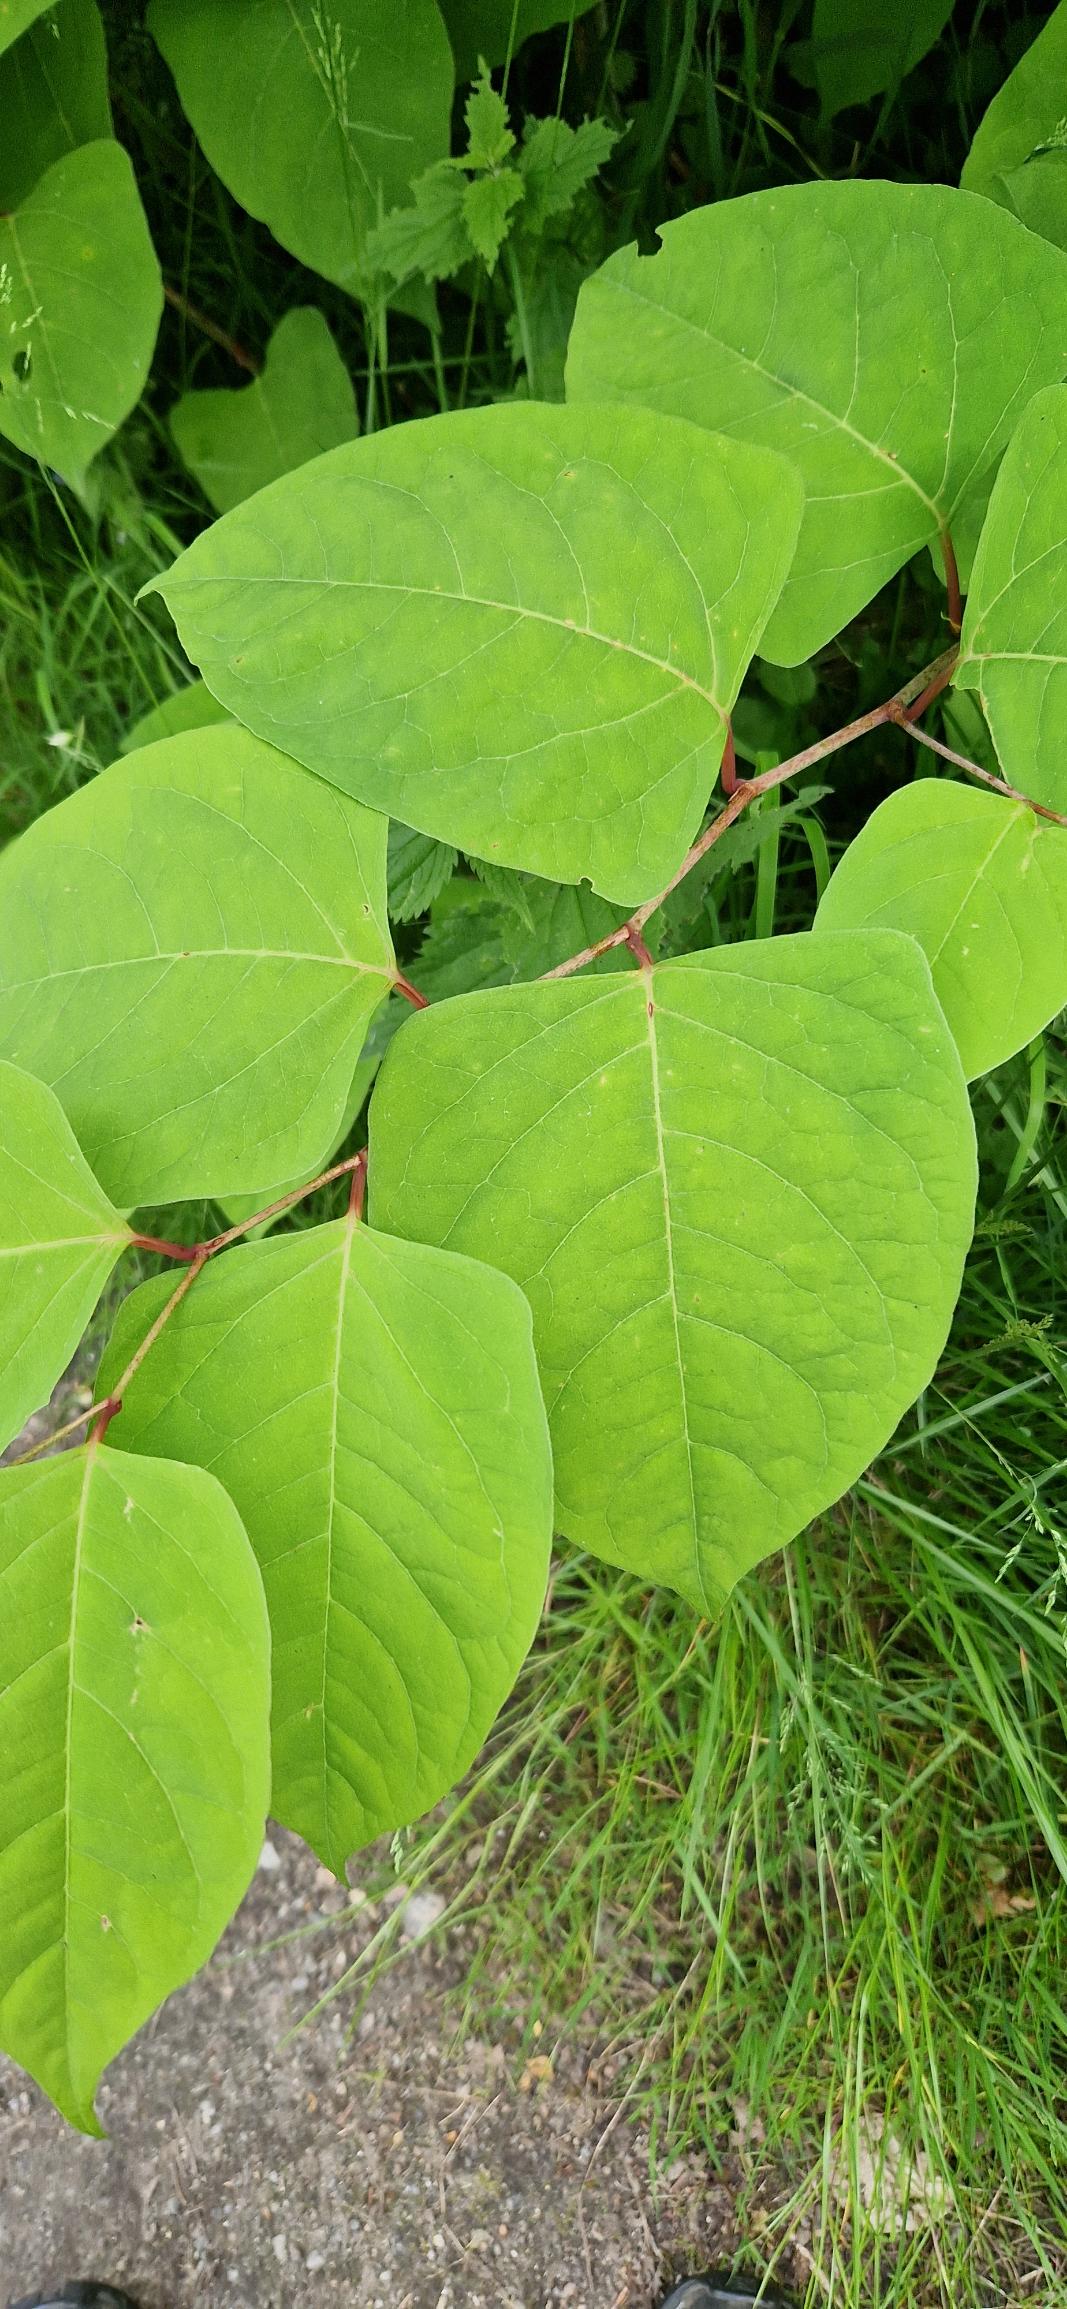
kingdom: Plantae
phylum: Tracheophyta
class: Magnoliopsida
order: Caryophyllales
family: Polygonaceae
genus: Reynoutria
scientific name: Reynoutria japonica
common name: Japan-pileurt
